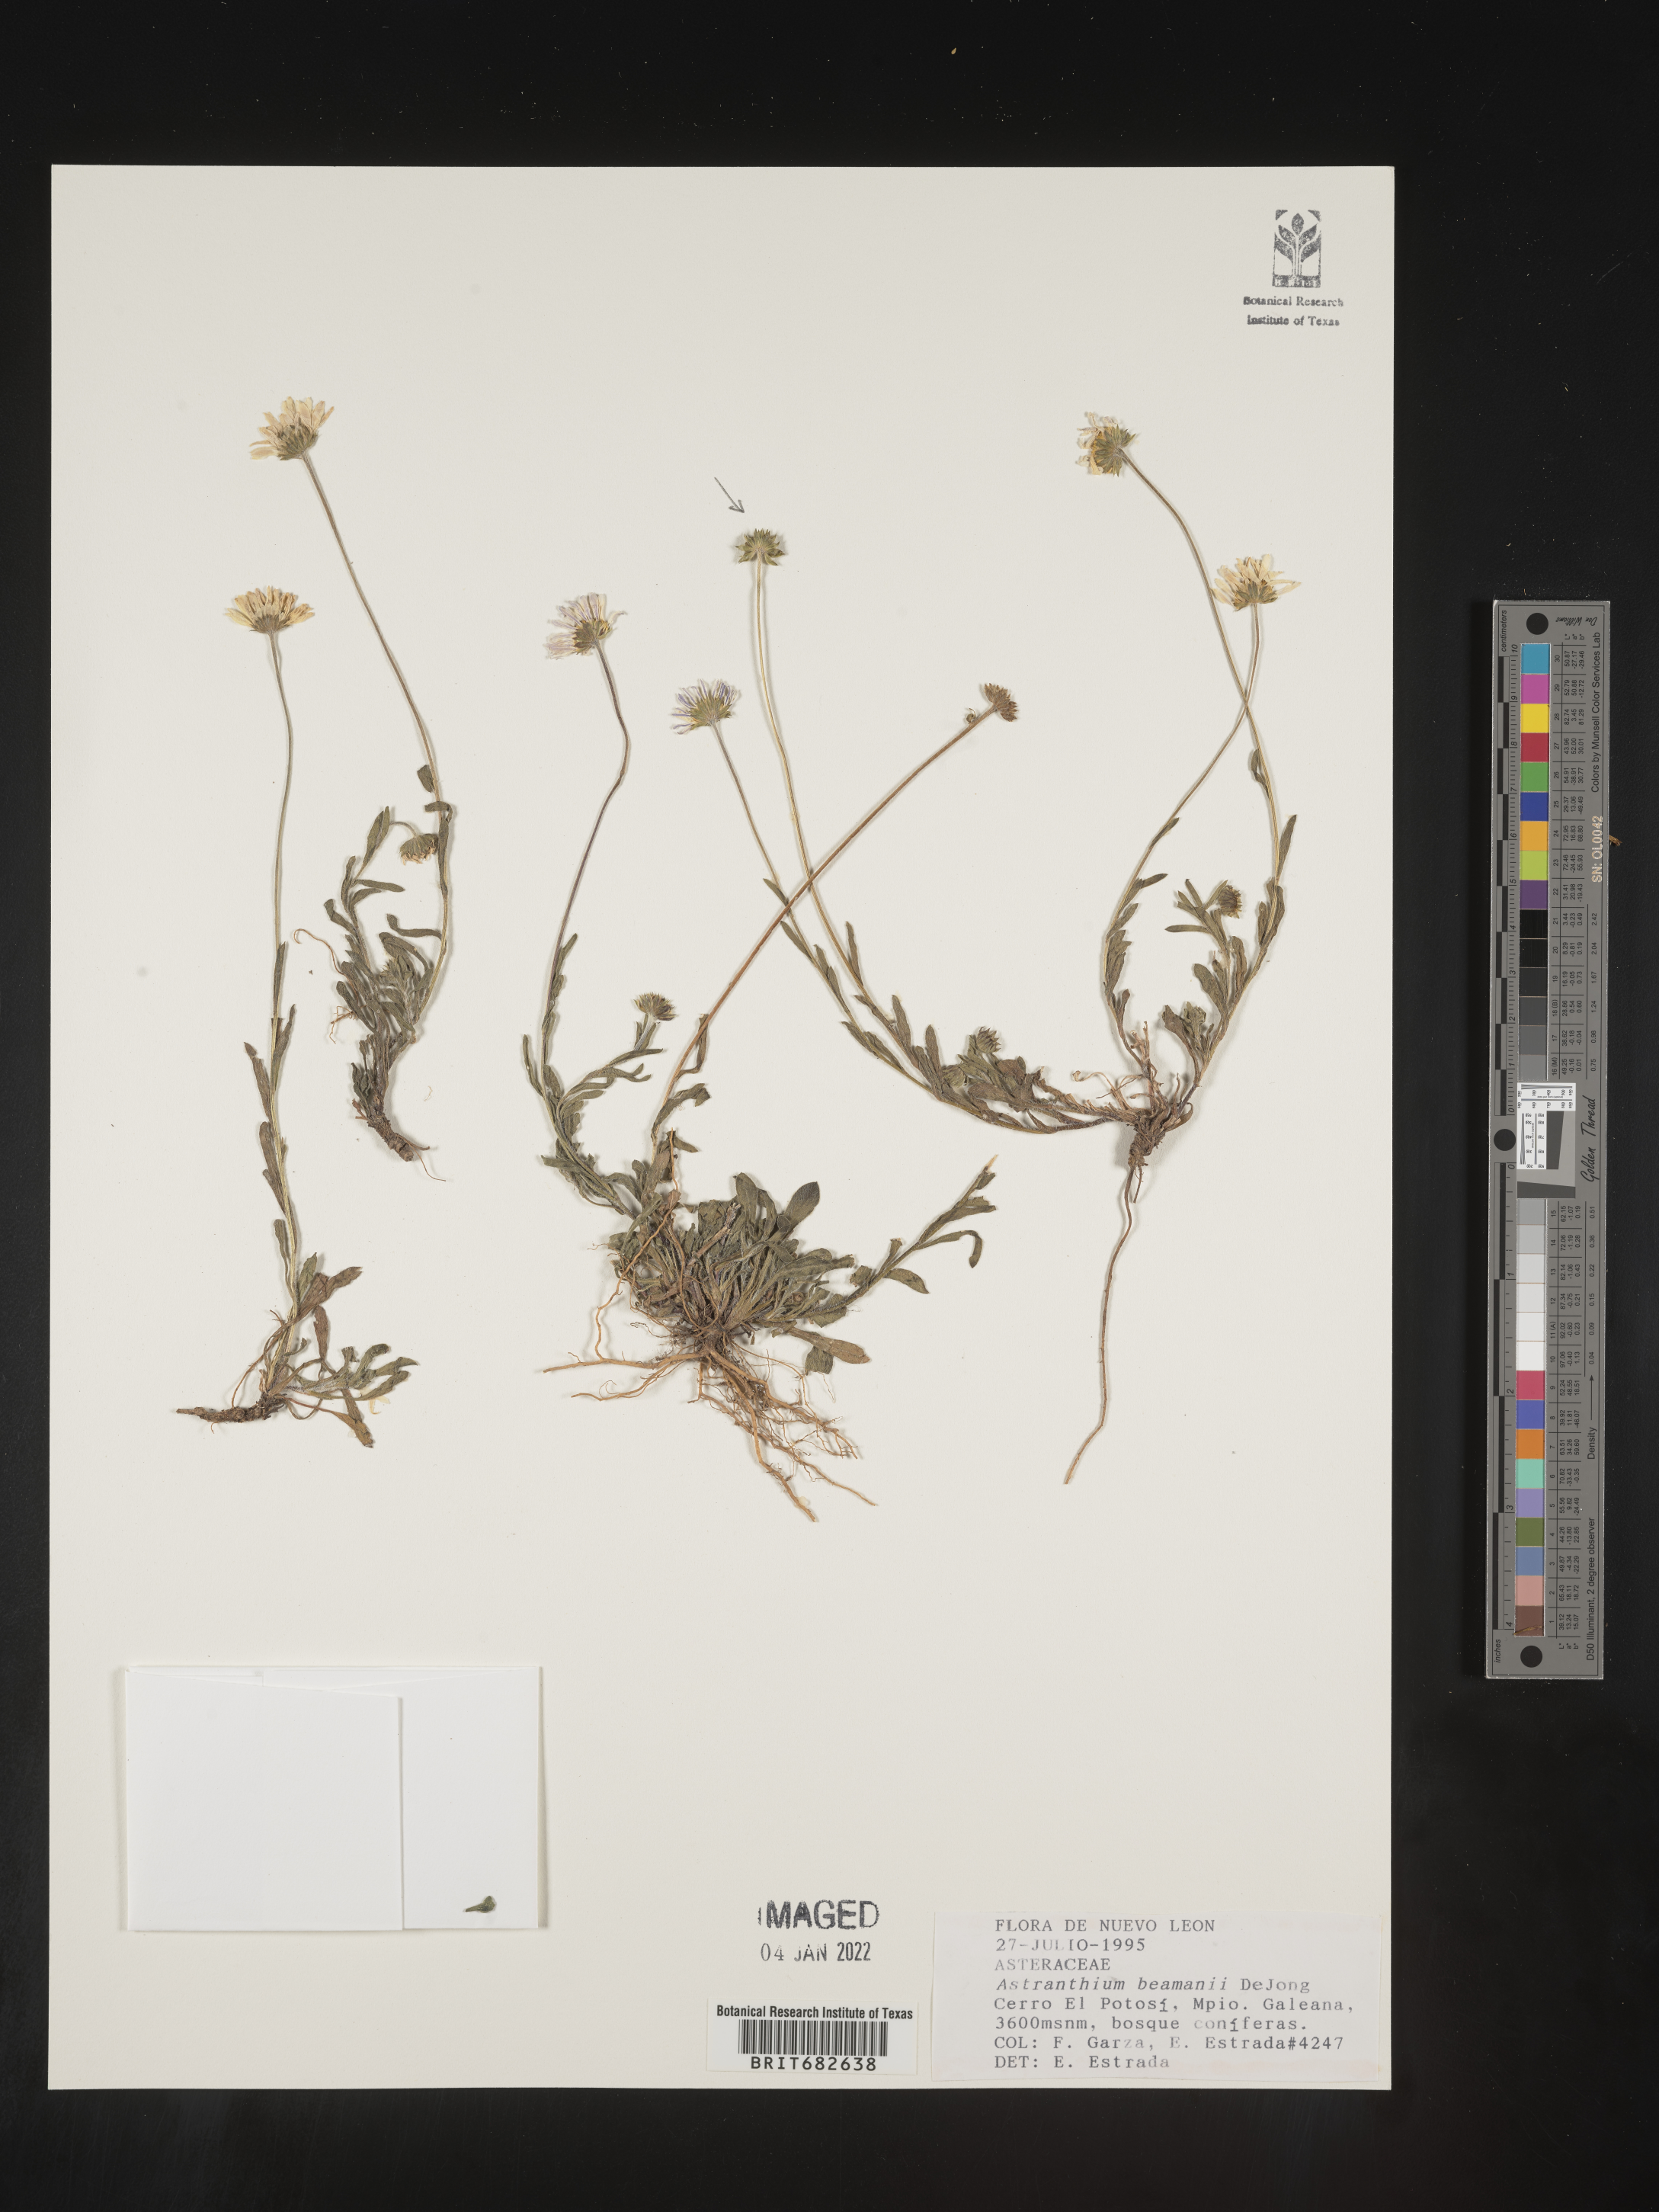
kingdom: Plantae
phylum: Tracheophyta
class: Magnoliopsida
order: Asterales
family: Asteraceae
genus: Astranthium
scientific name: Astranthium
